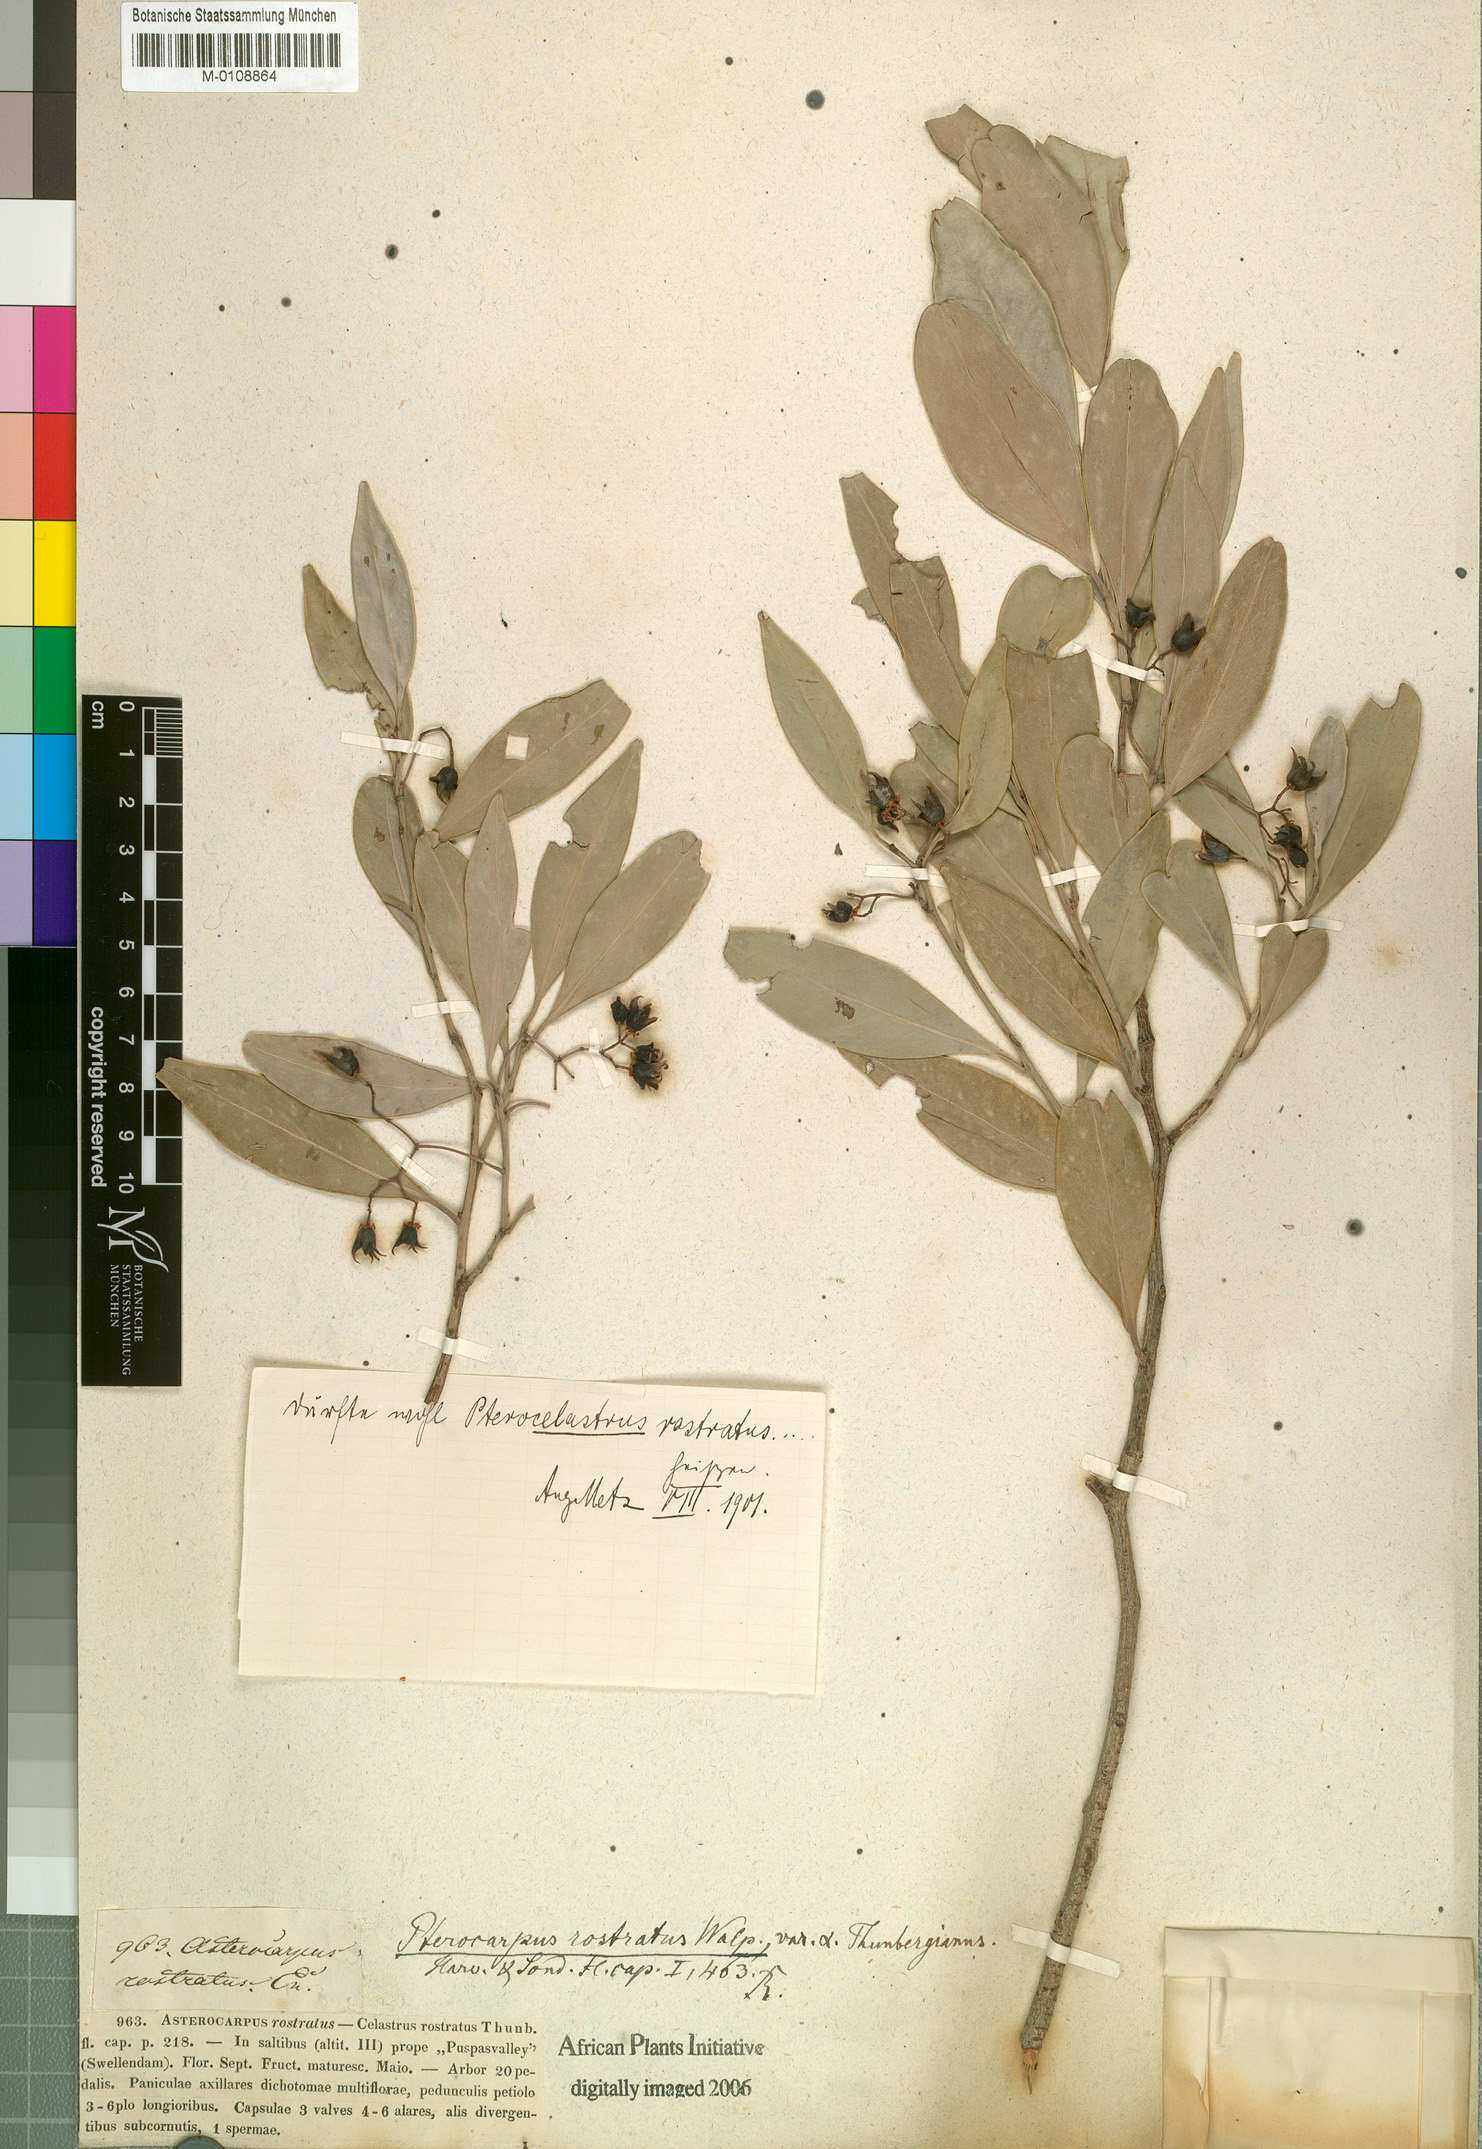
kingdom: Plantae
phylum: Tracheophyta
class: Magnoliopsida
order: Celastrales
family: Celastraceae
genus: Pterocelastrus
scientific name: Pterocelastrus rostratus
